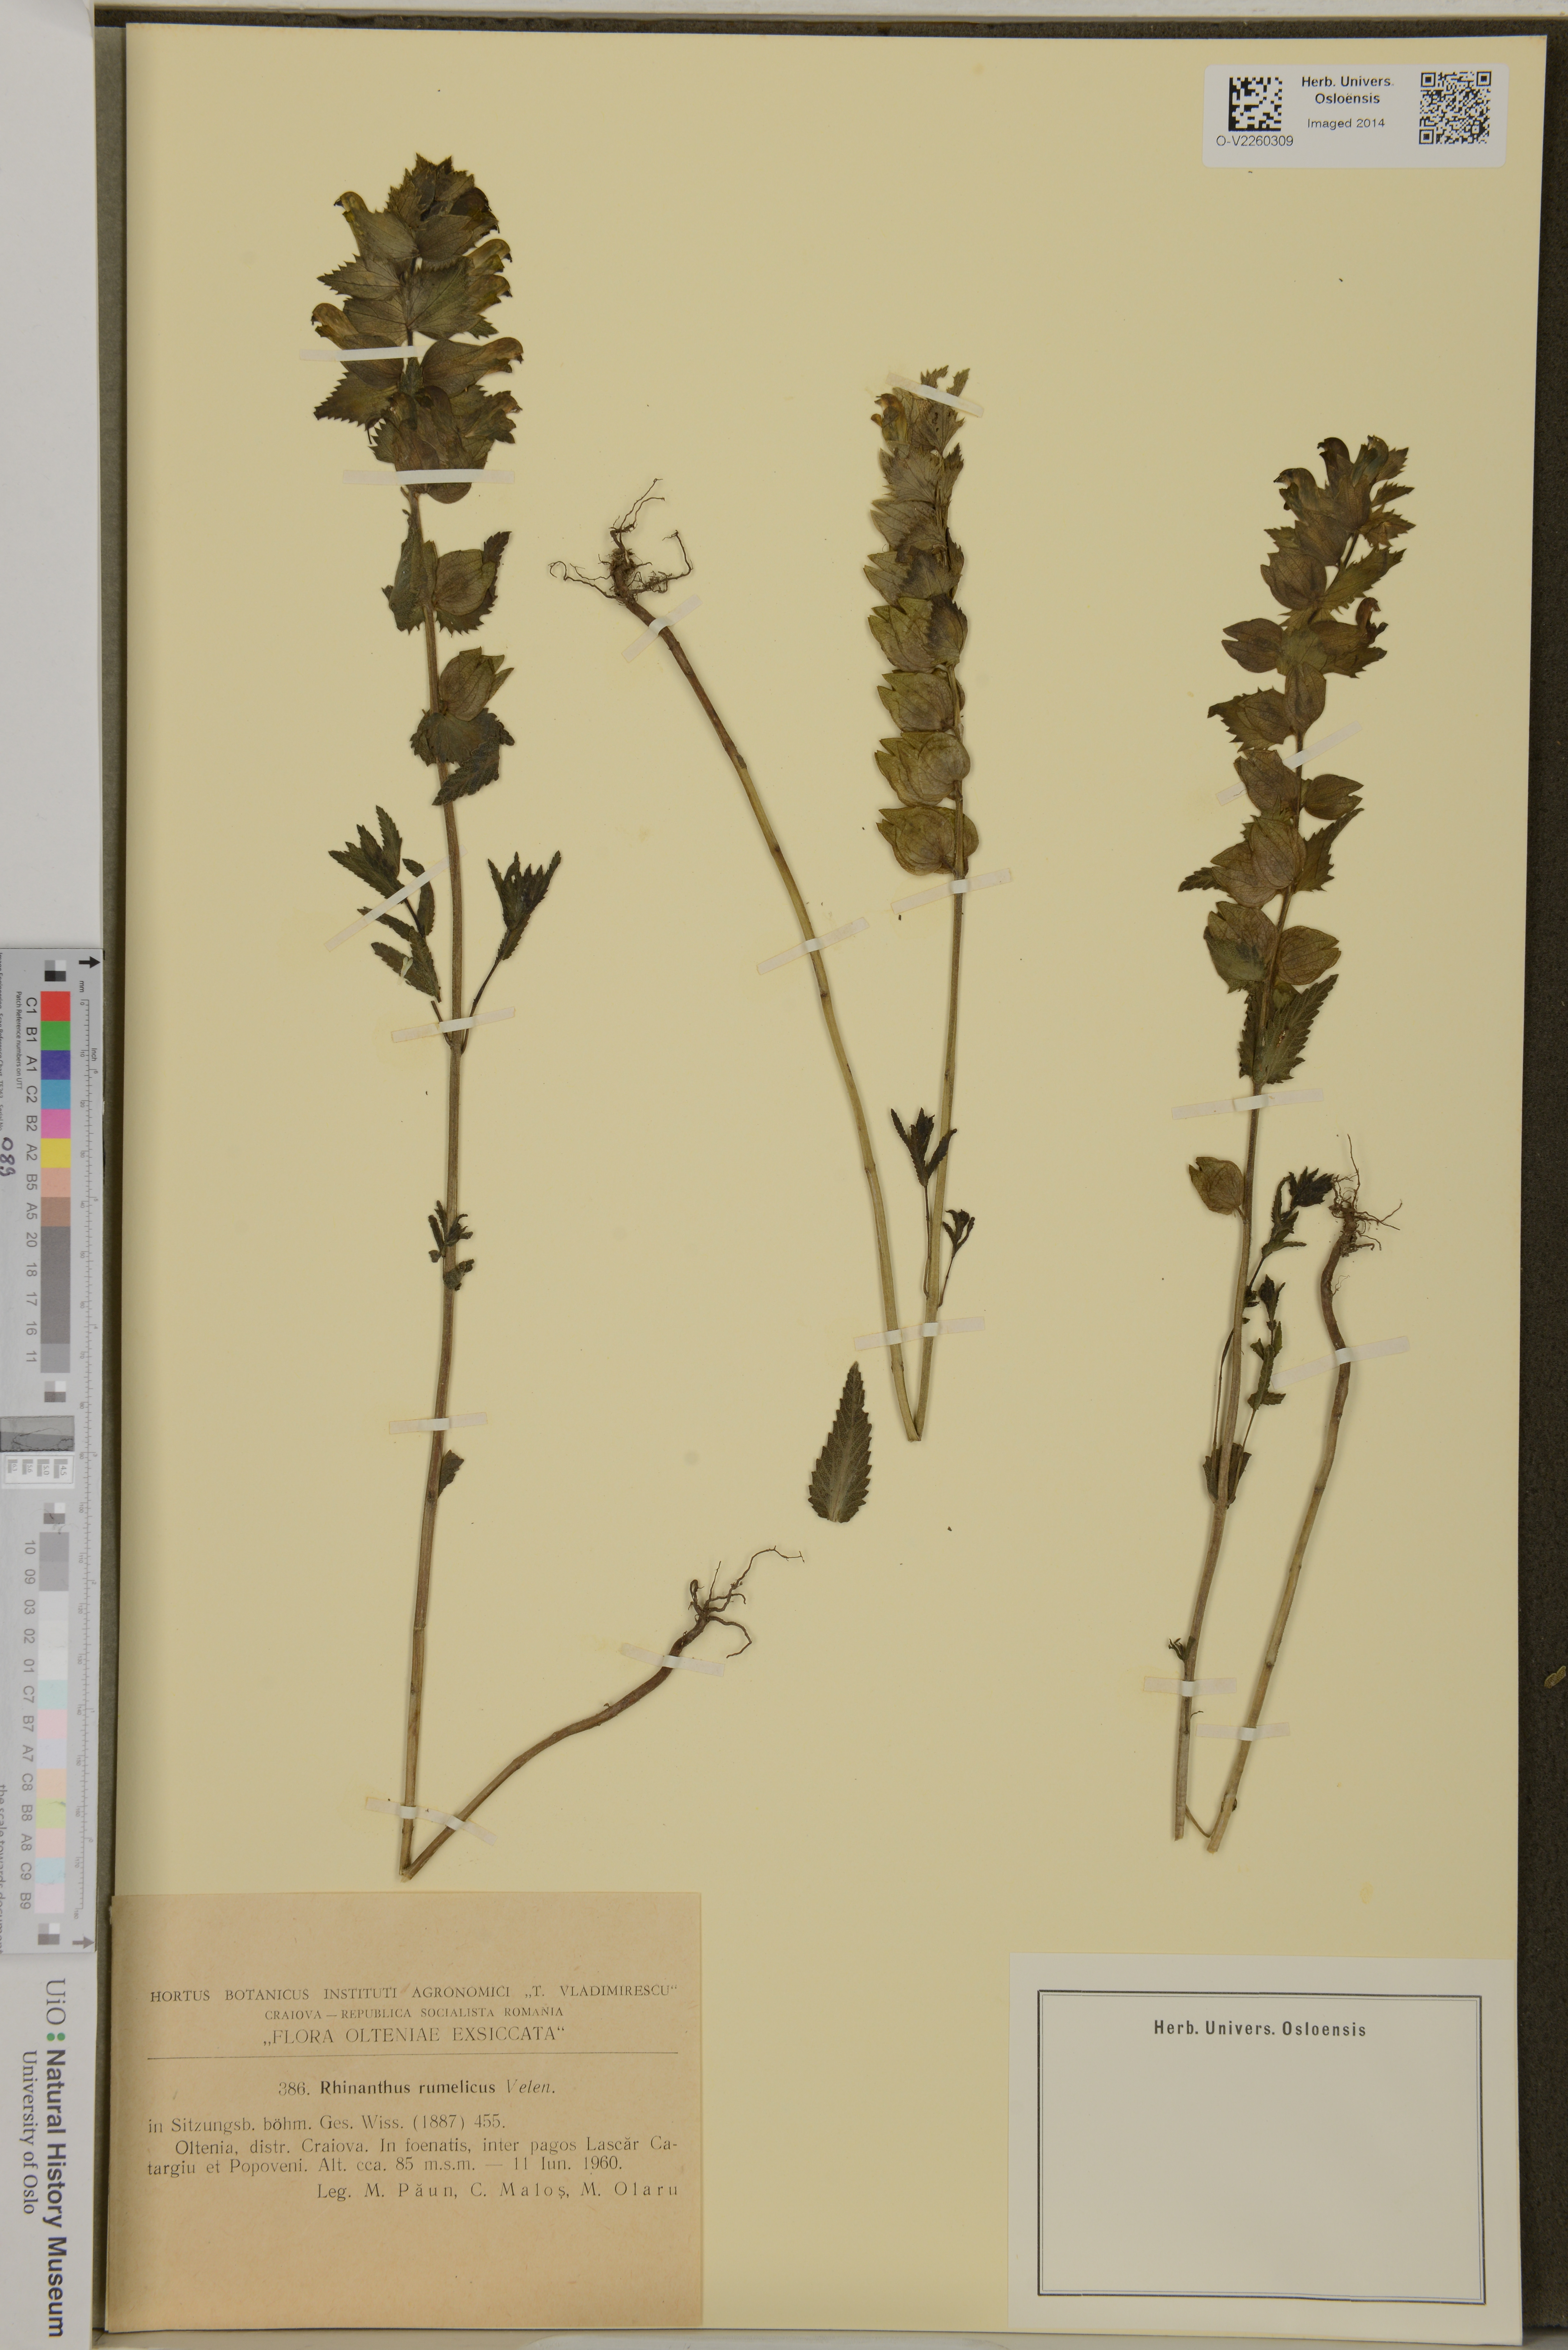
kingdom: Plantae
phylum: Tracheophyta
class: Magnoliopsida
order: Lamiales
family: Orobanchaceae
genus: Rhinanthus
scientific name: Rhinanthus rumelicus
